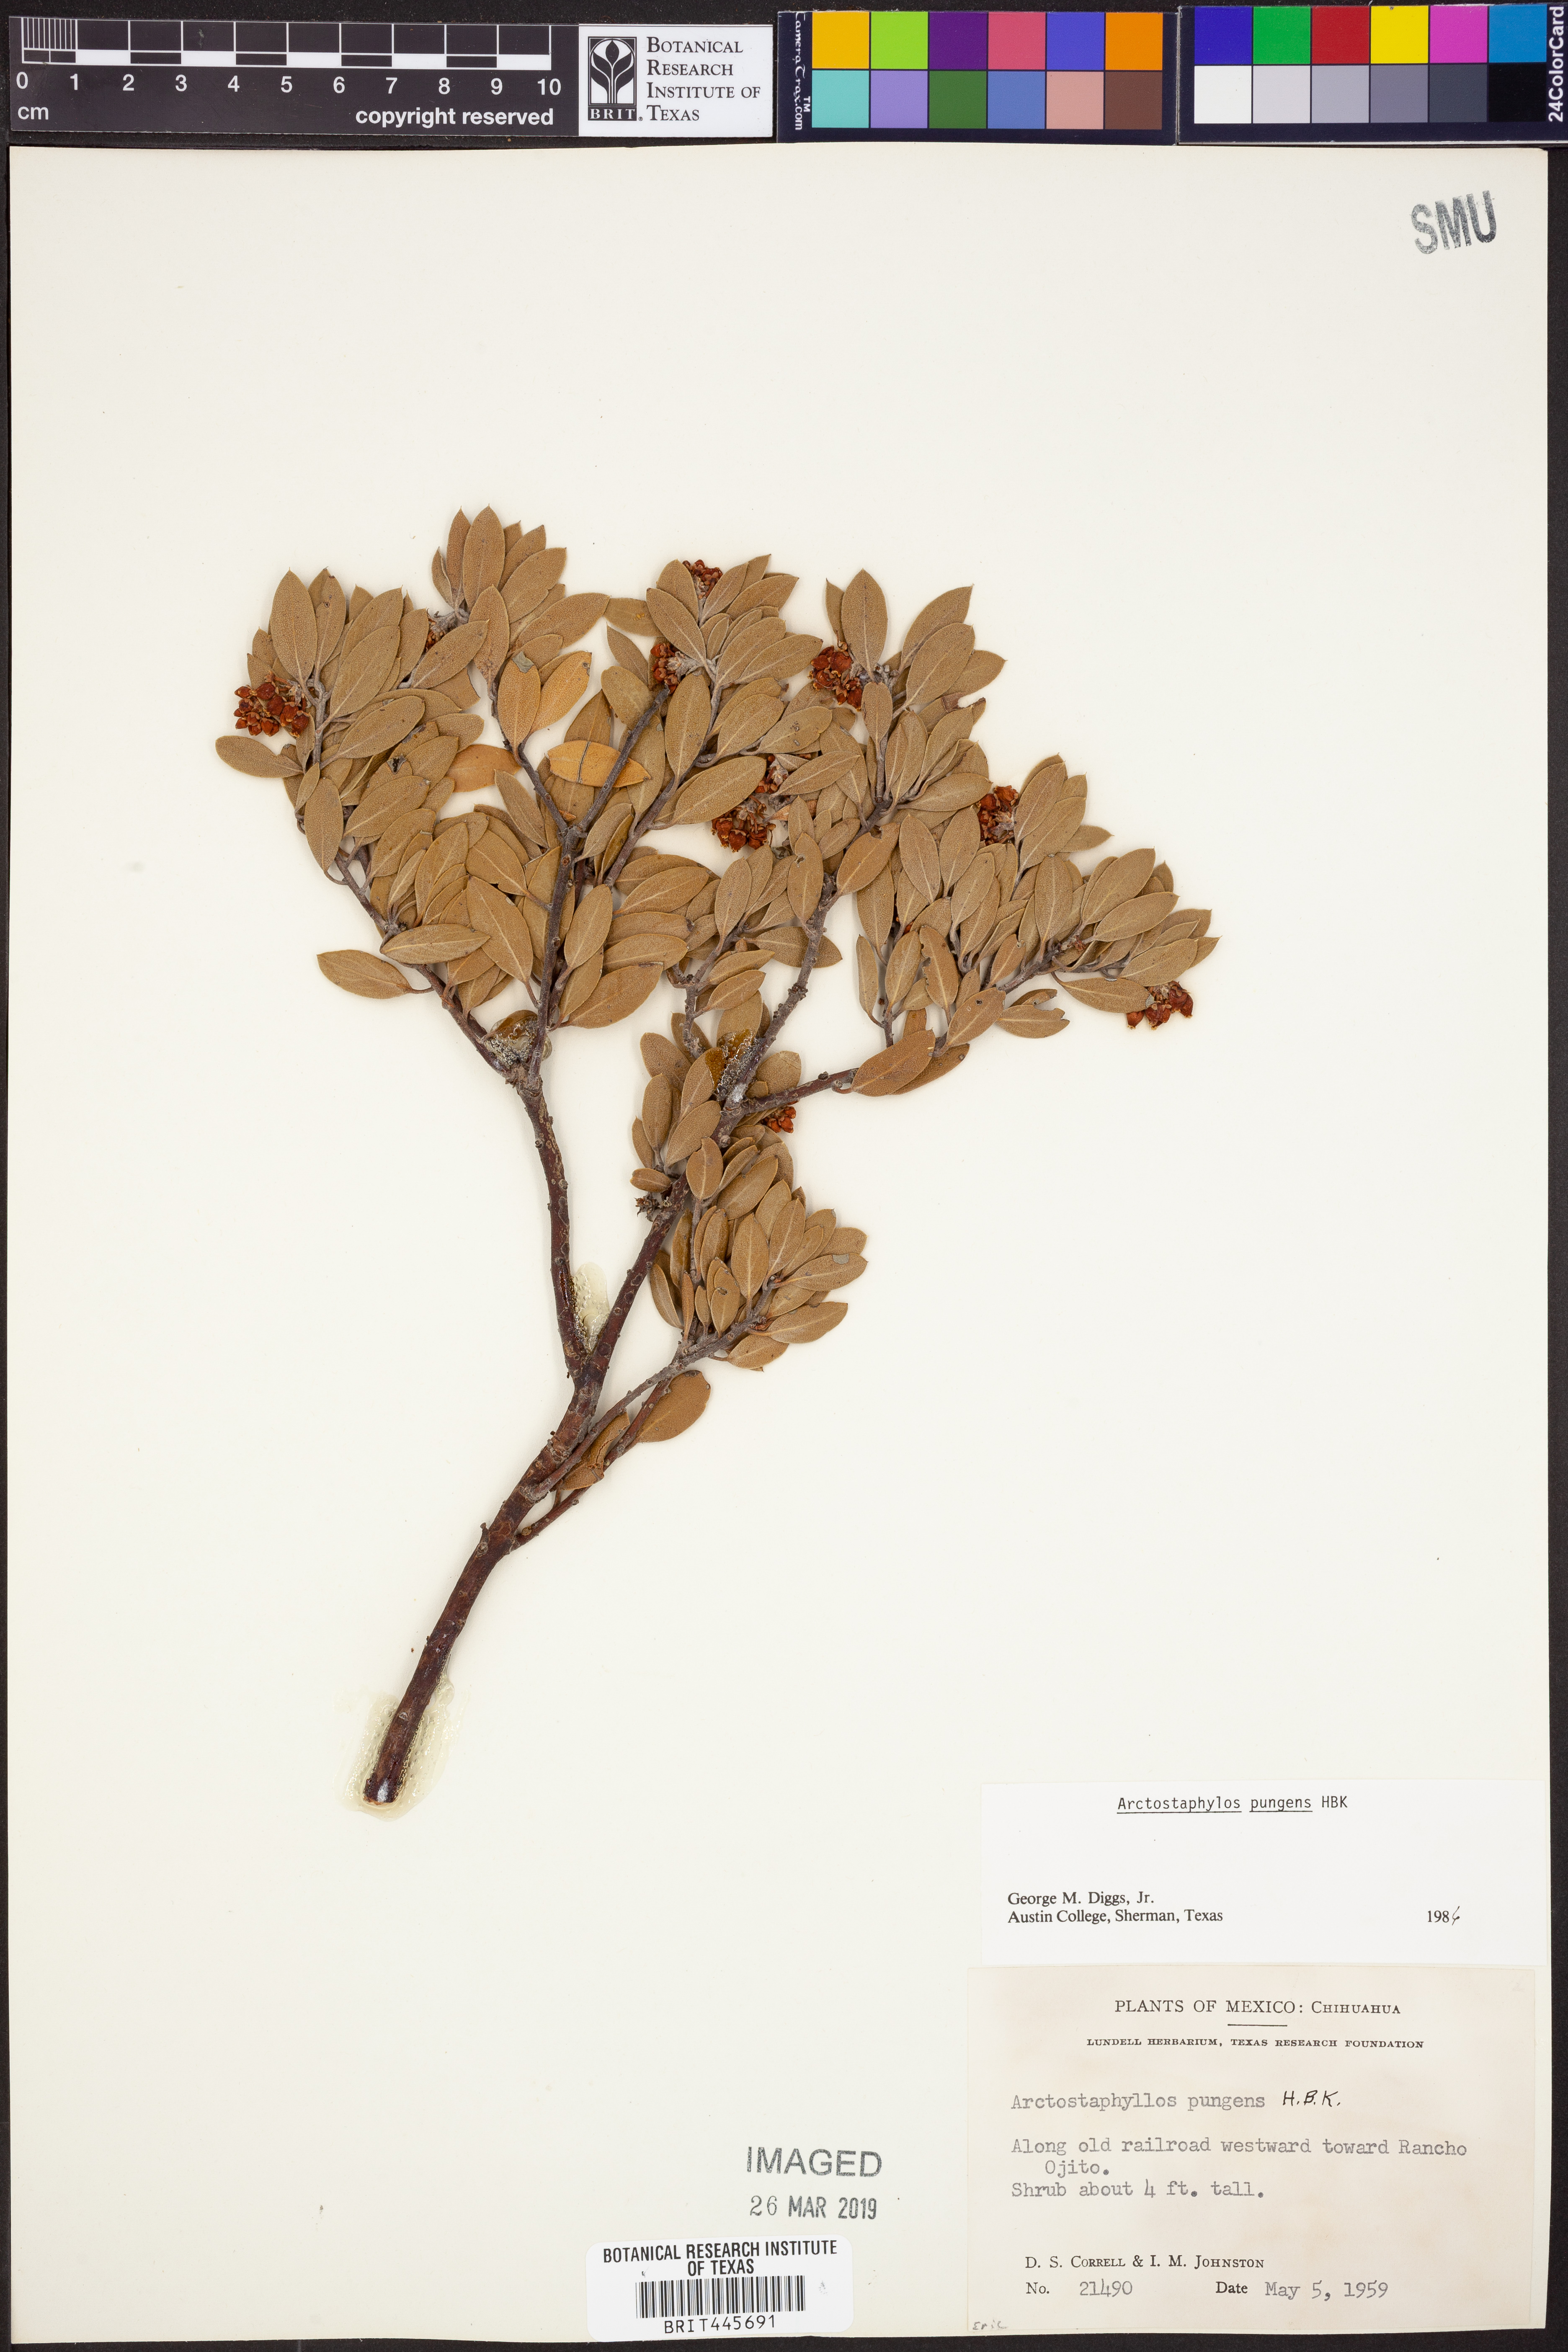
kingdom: Plantae
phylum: Tracheophyta
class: Magnoliopsida
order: Ericales
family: Ericaceae
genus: Arctostaphylos
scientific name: Arctostaphylos pungens
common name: Mexican manzanita
